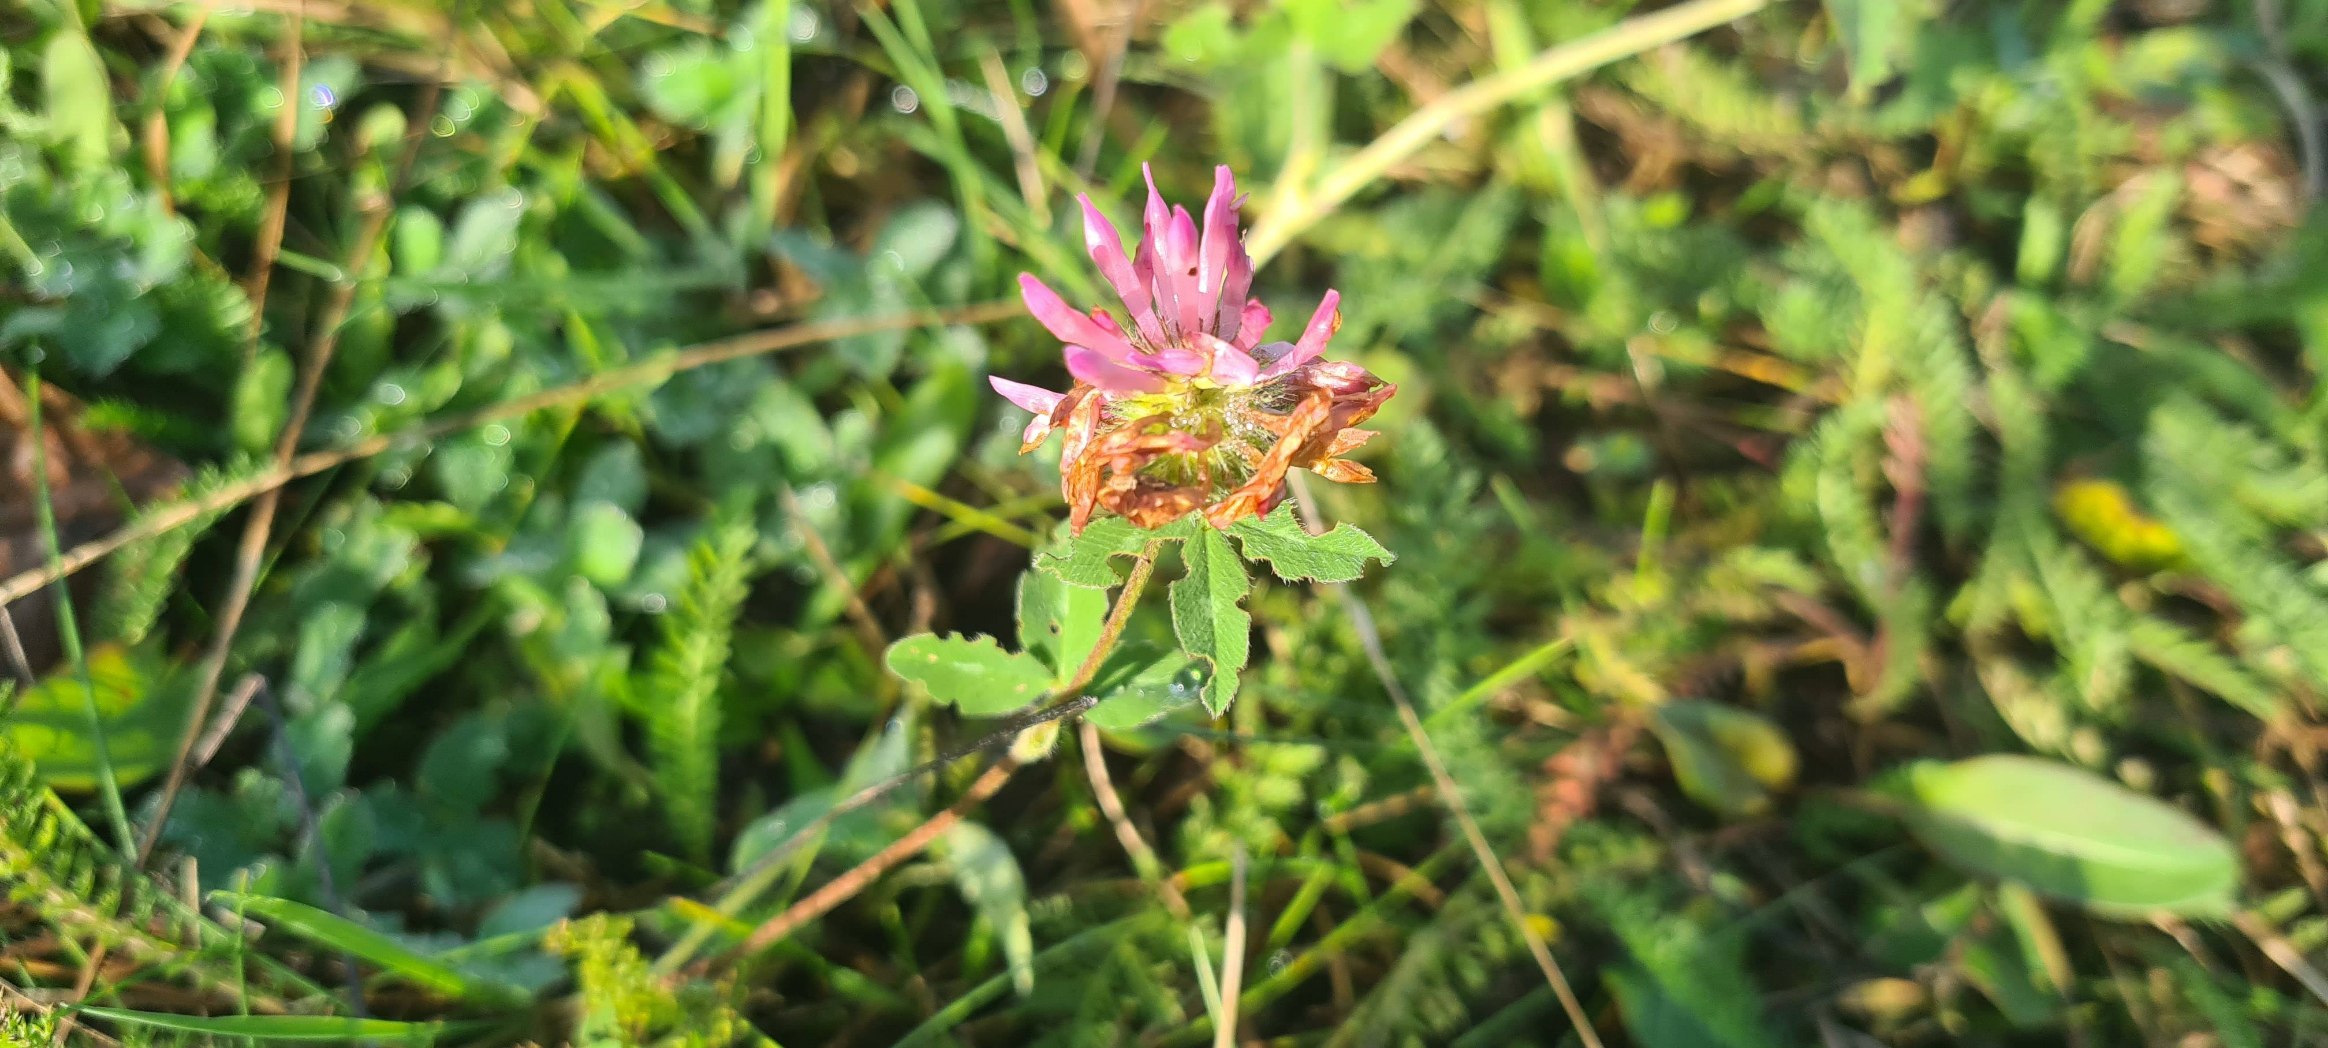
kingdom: Plantae
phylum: Tracheophyta
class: Magnoliopsida
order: Fabales
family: Fabaceae
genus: Trifolium
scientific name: Trifolium pratense
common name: Rød-kløver
